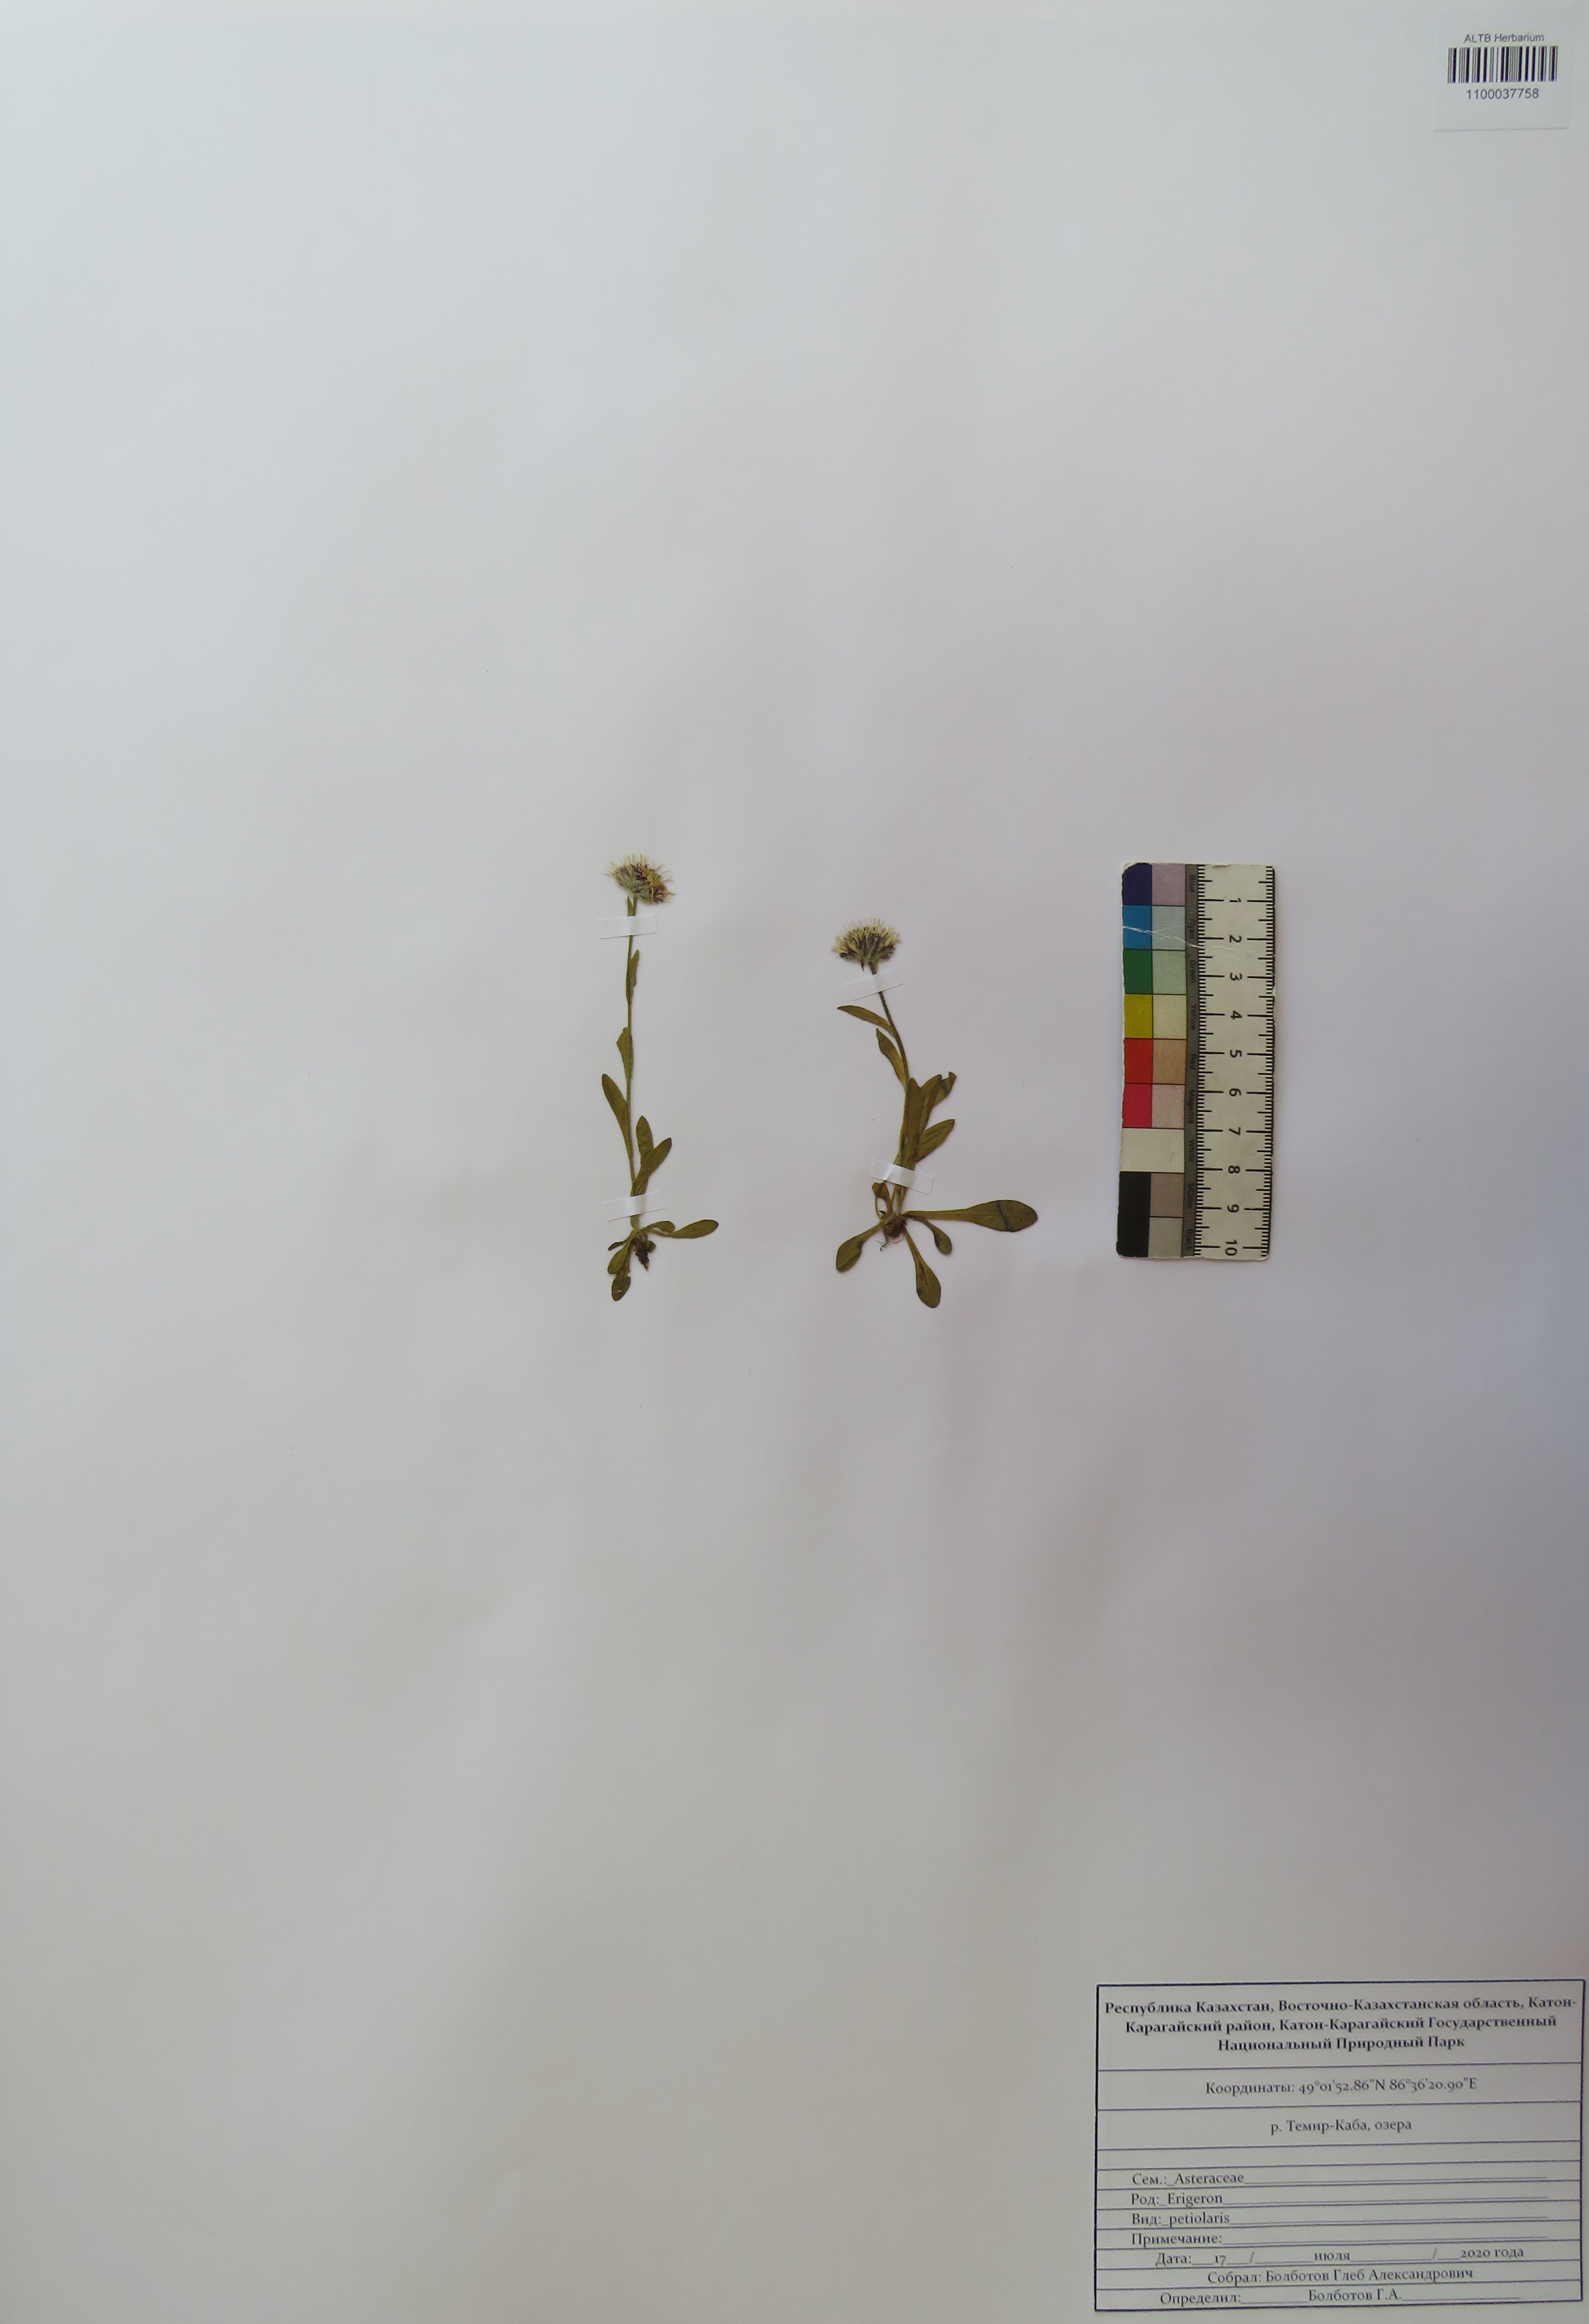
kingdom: Plantae
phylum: Tracheophyta
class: Magnoliopsida
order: Asterales
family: Asteraceae
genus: Erigeron
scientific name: Erigeron petiolaris
